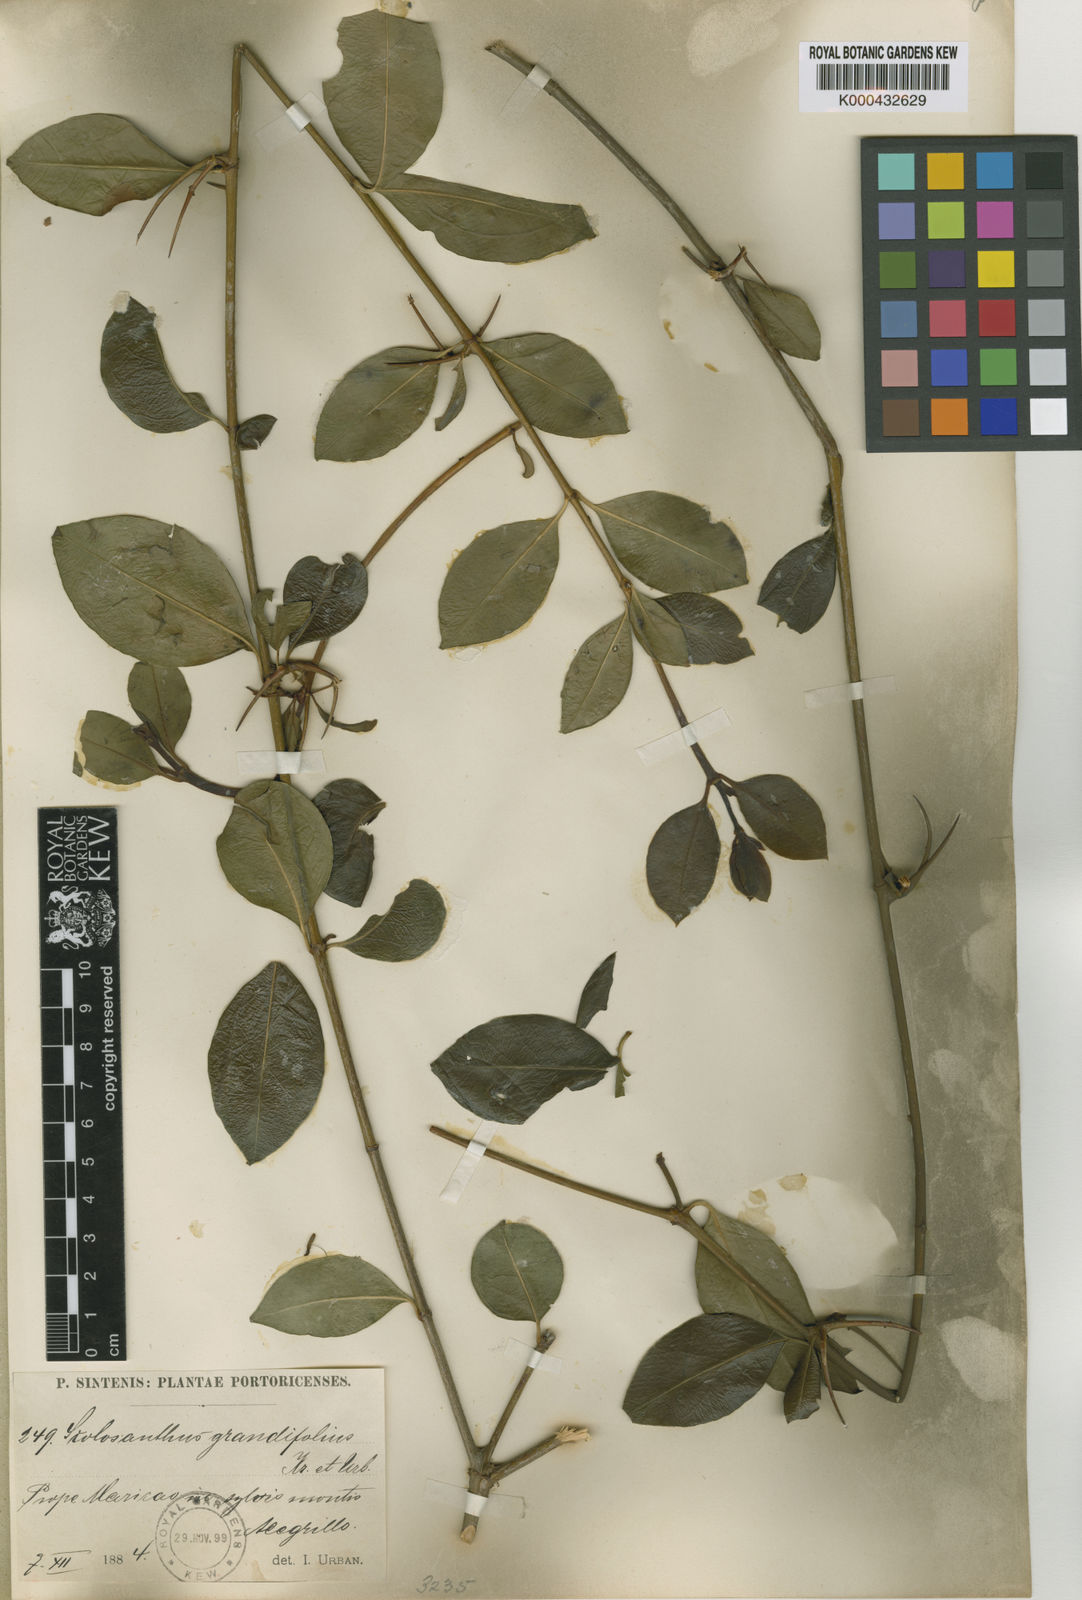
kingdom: Plantae
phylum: Tracheophyta
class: Magnoliopsida
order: Gentianales
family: Rubiaceae
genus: Scolosanthus
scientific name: Scolosanthus grandifolius
